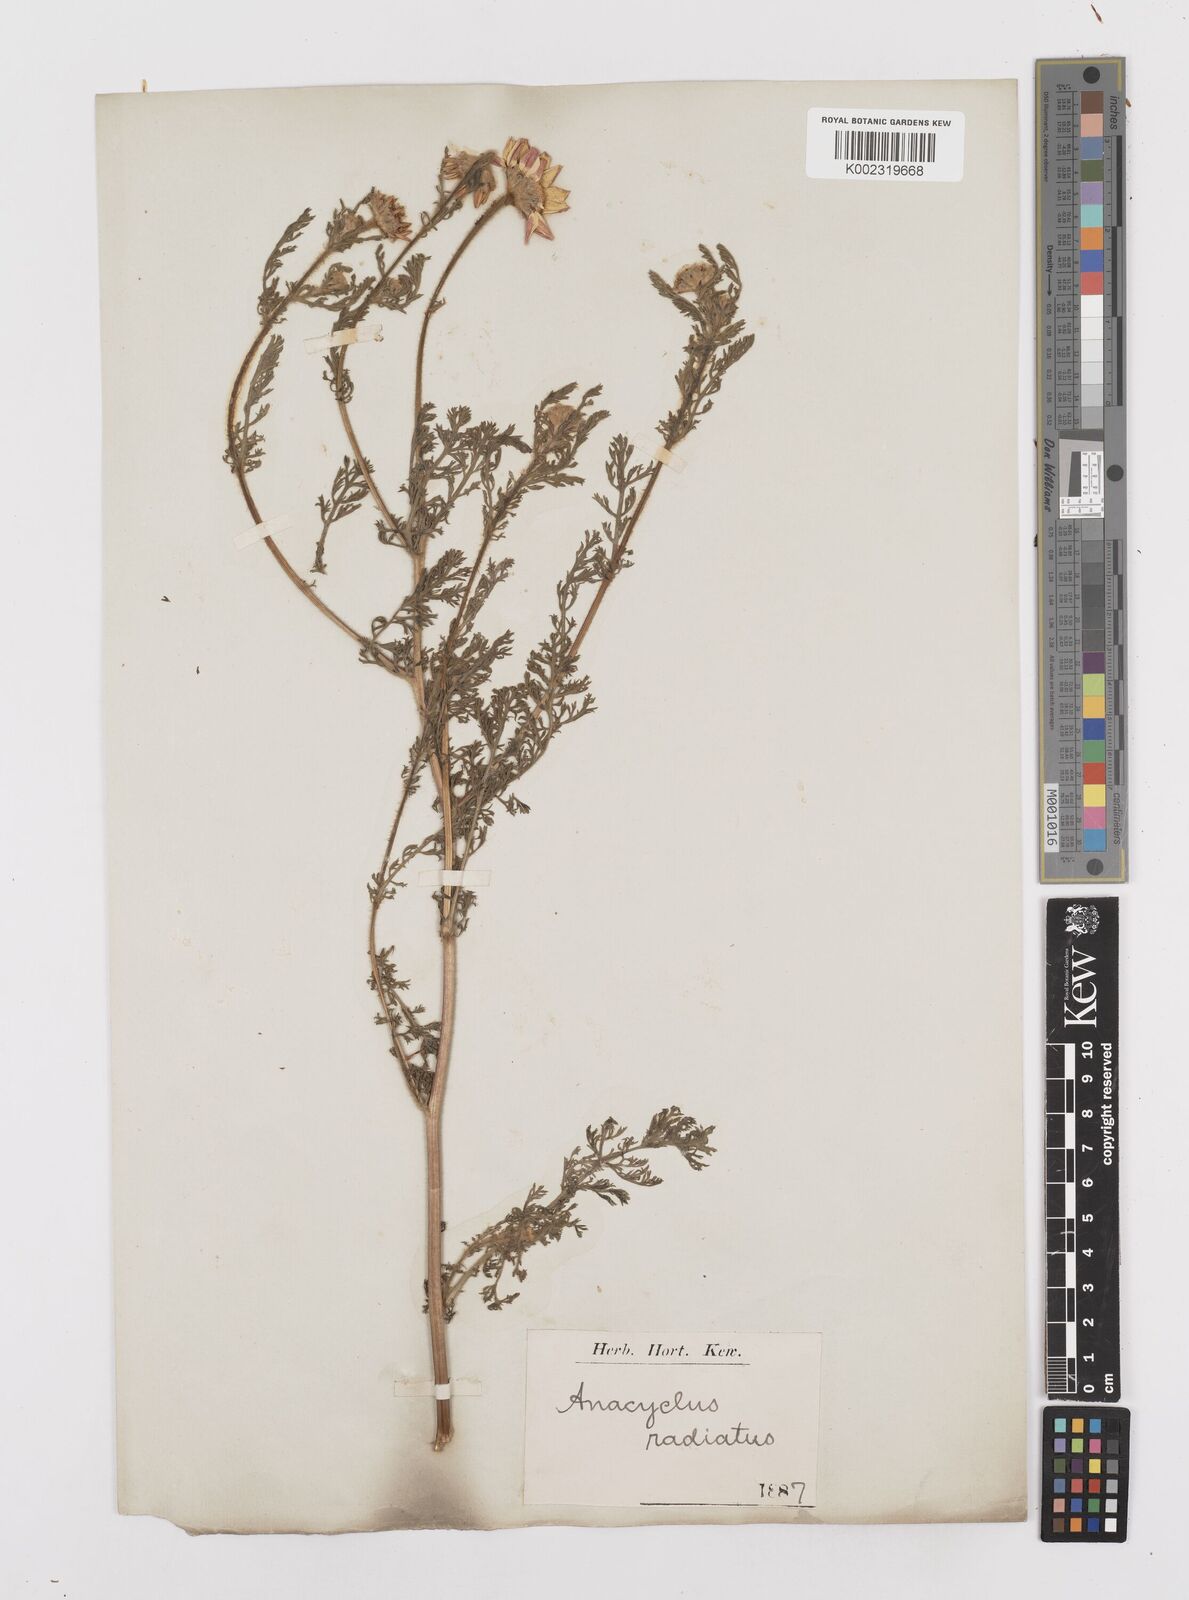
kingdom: Plantae
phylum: Tracheophyta
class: Magnoliopsida
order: Asterales
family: Asteraceae
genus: Anacyclus
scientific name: Anacyclus radiatus
